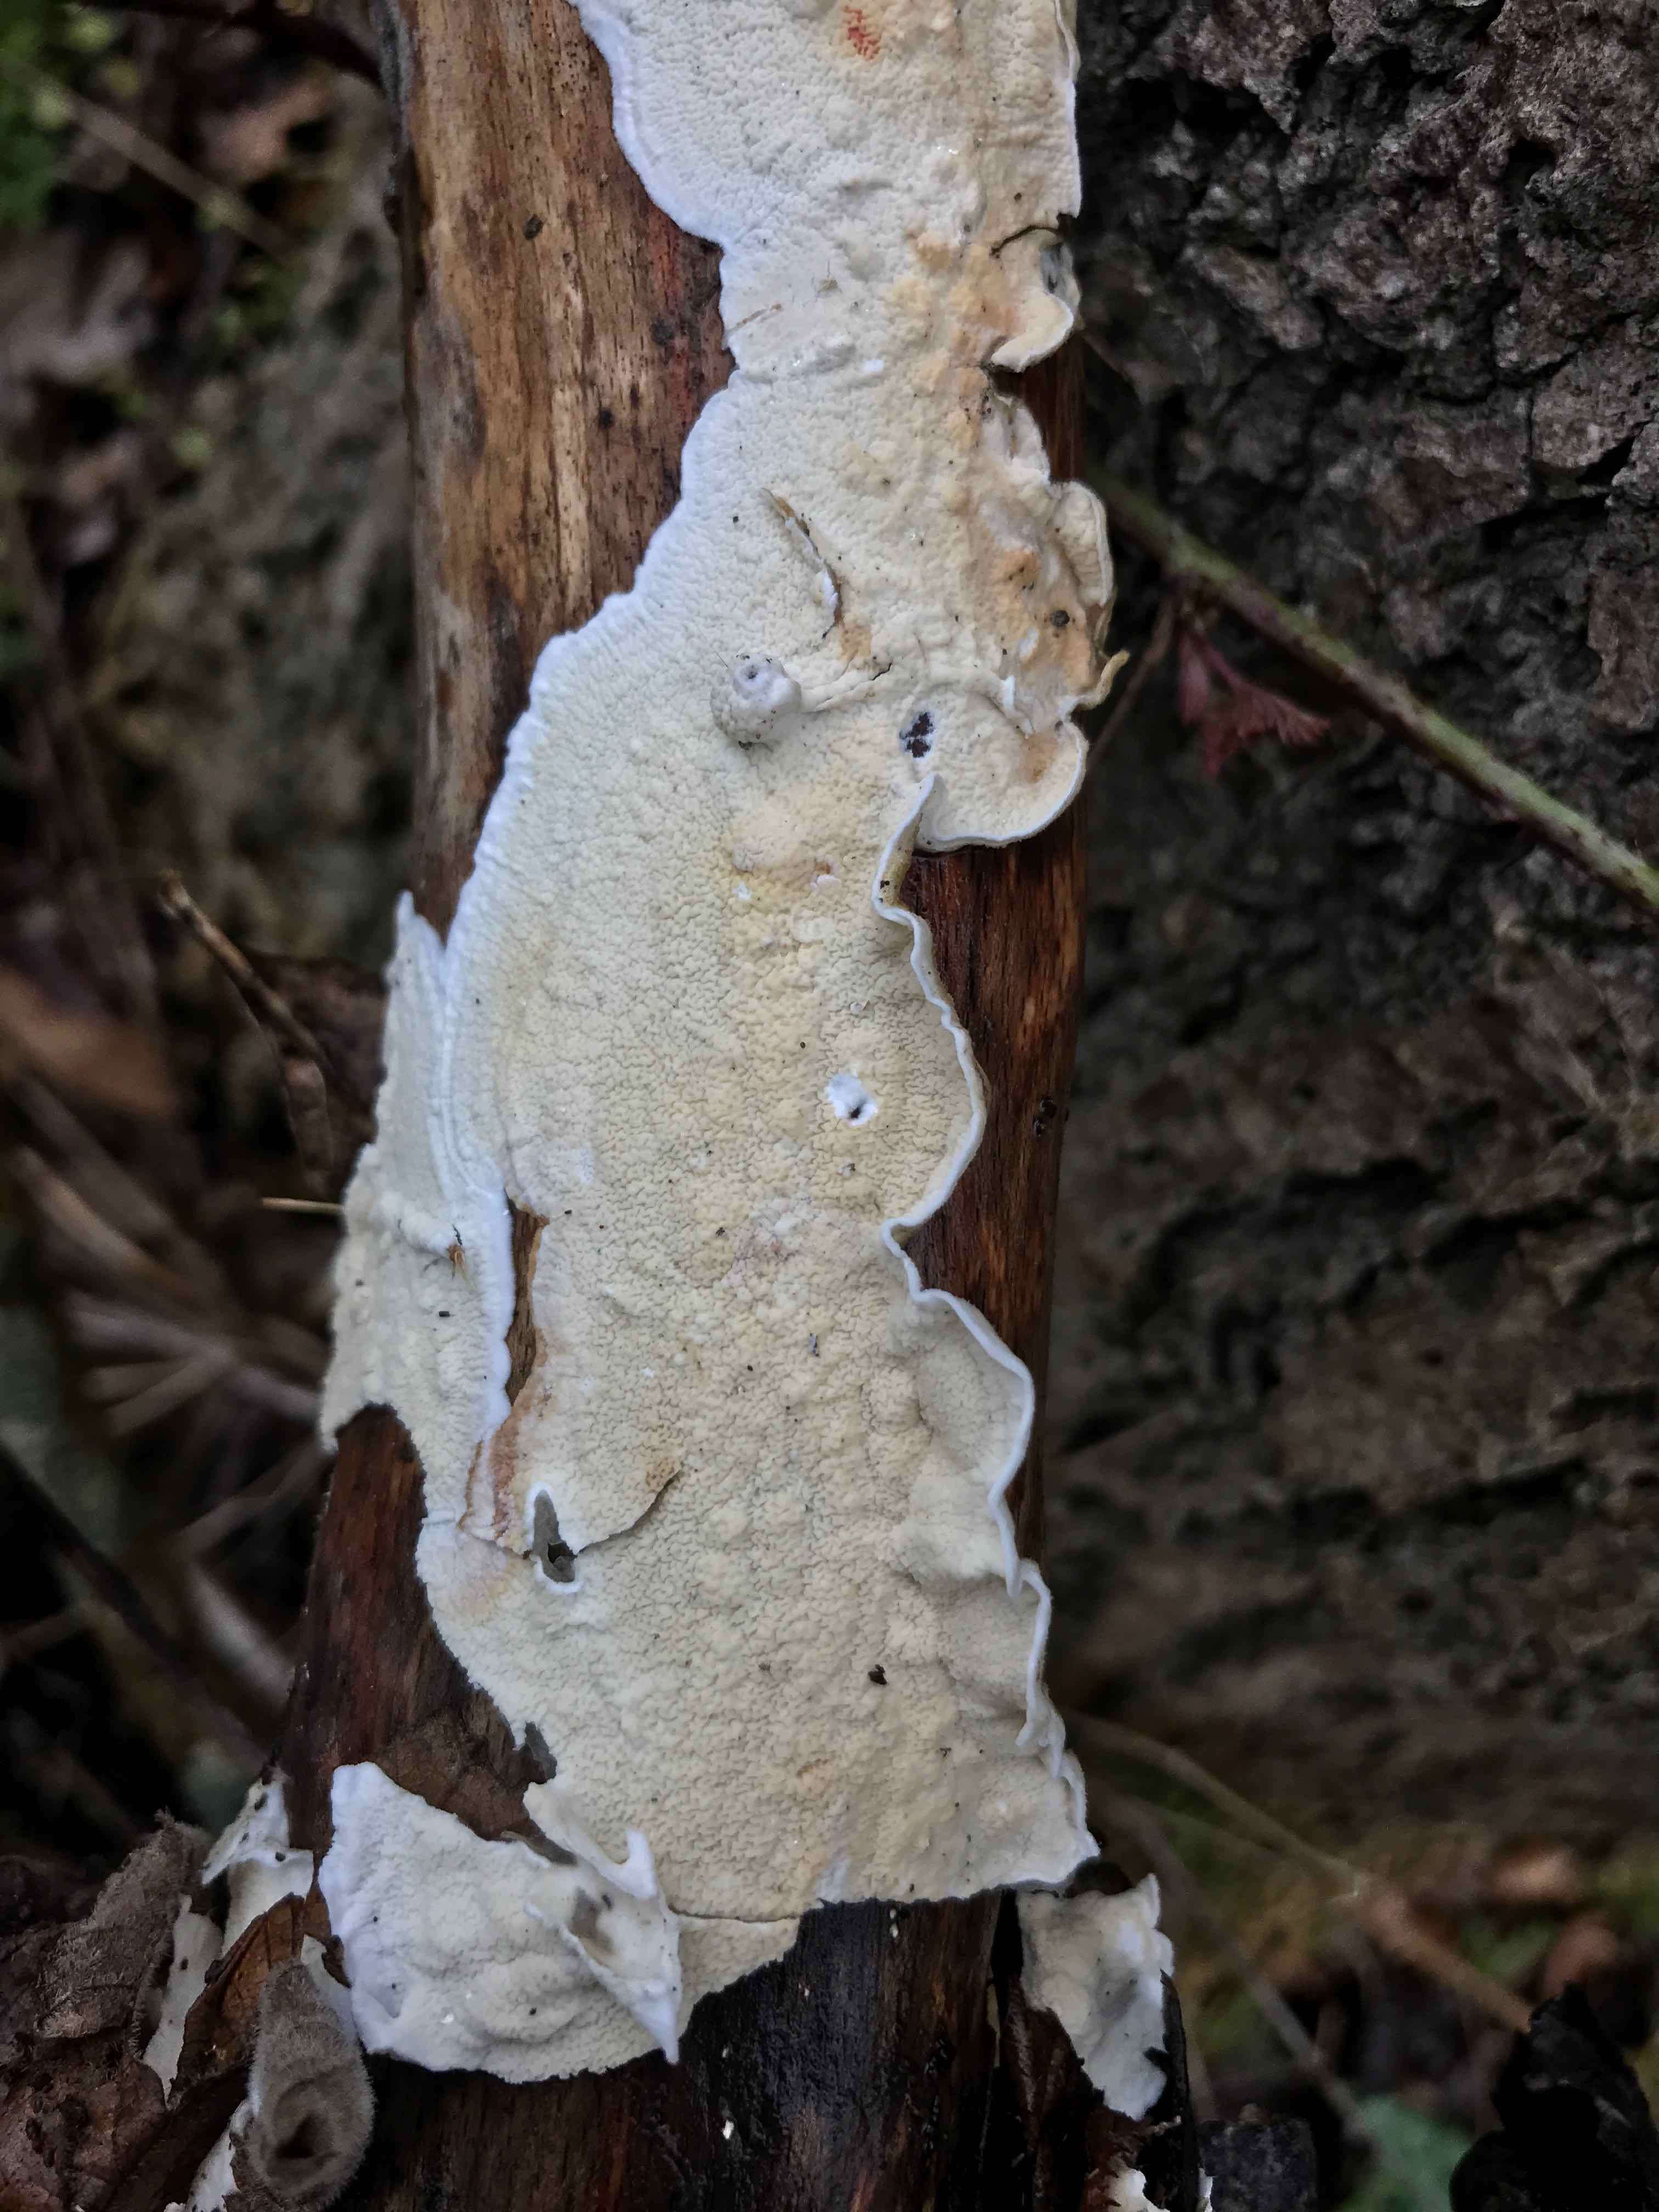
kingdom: Fungi
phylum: Basidiomycota
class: Agaricomycetes
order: Polyporales
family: Irpicaceae
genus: Byssomerulius
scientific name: Byssomerulius corium
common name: læder-åresvamp
